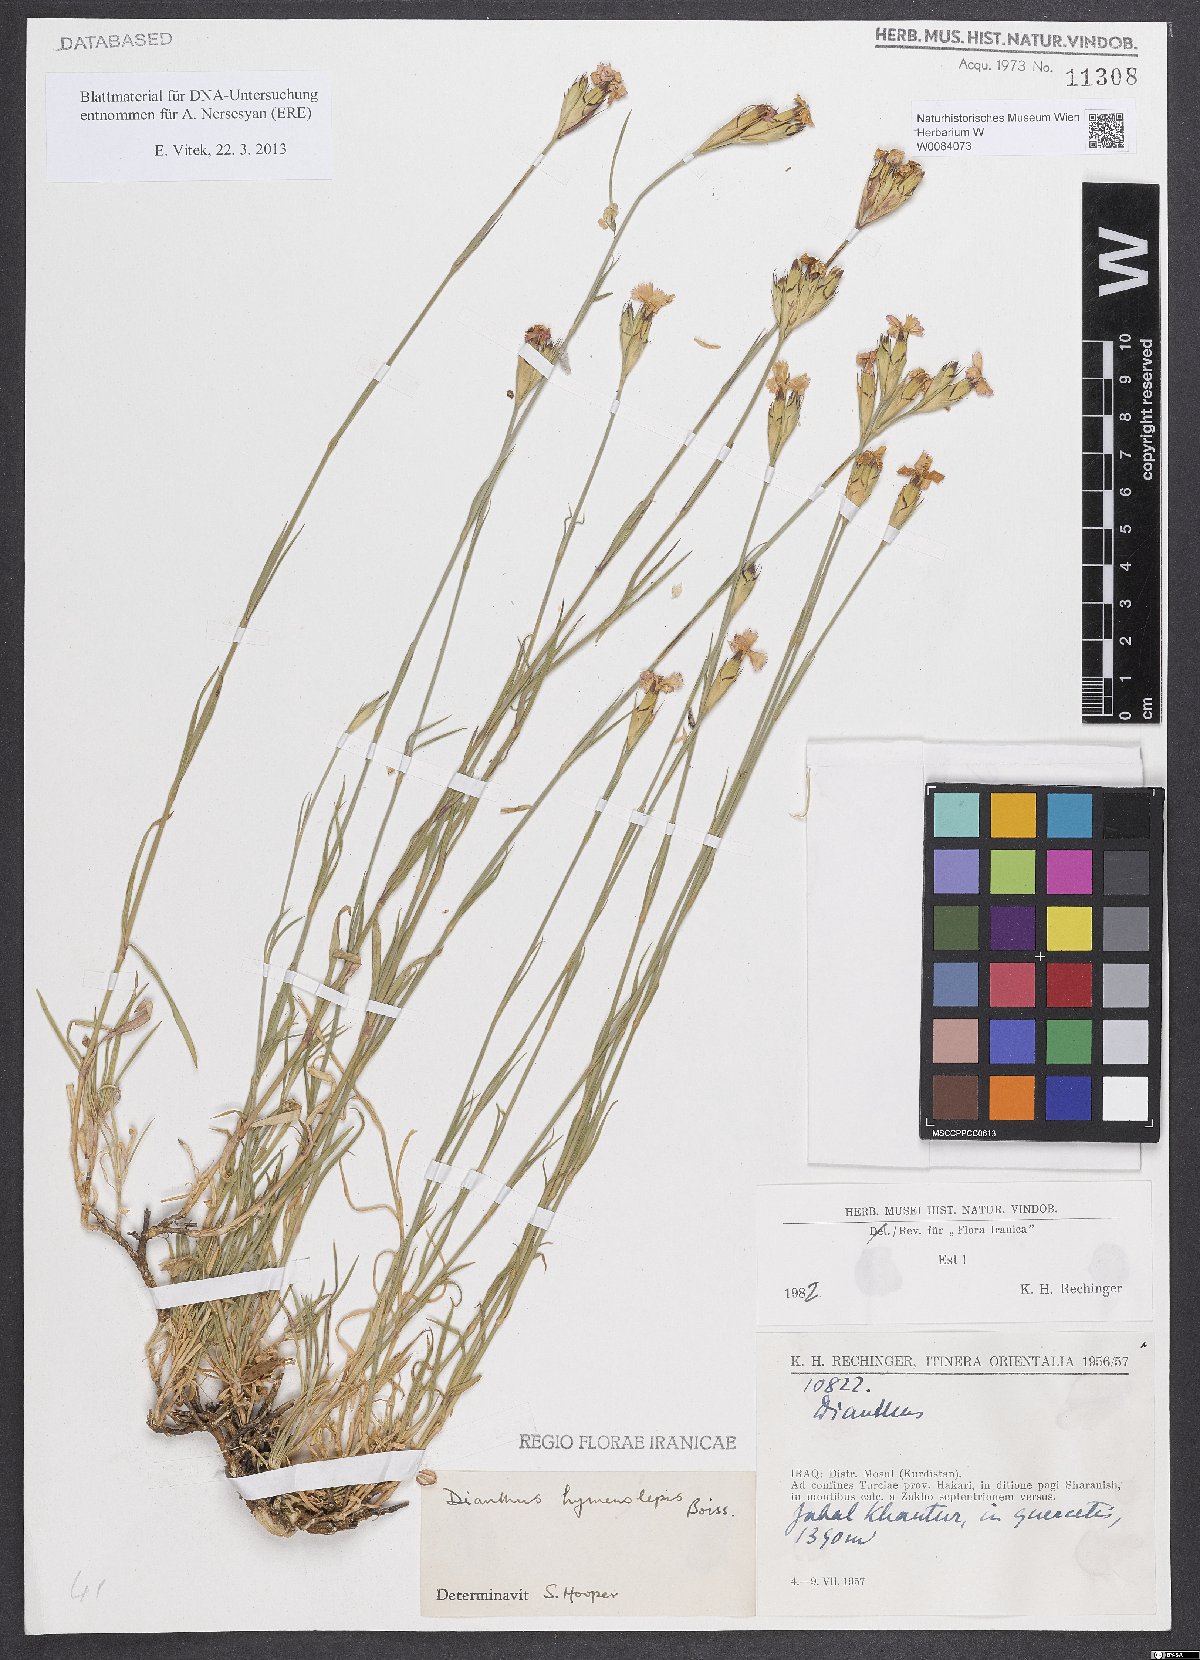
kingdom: Plantae
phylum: Tracheophyta
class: Magnoliopsida
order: Caryophyllales
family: Caryophyllaceae
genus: Dianthus
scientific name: Dianthus hymenolepis
